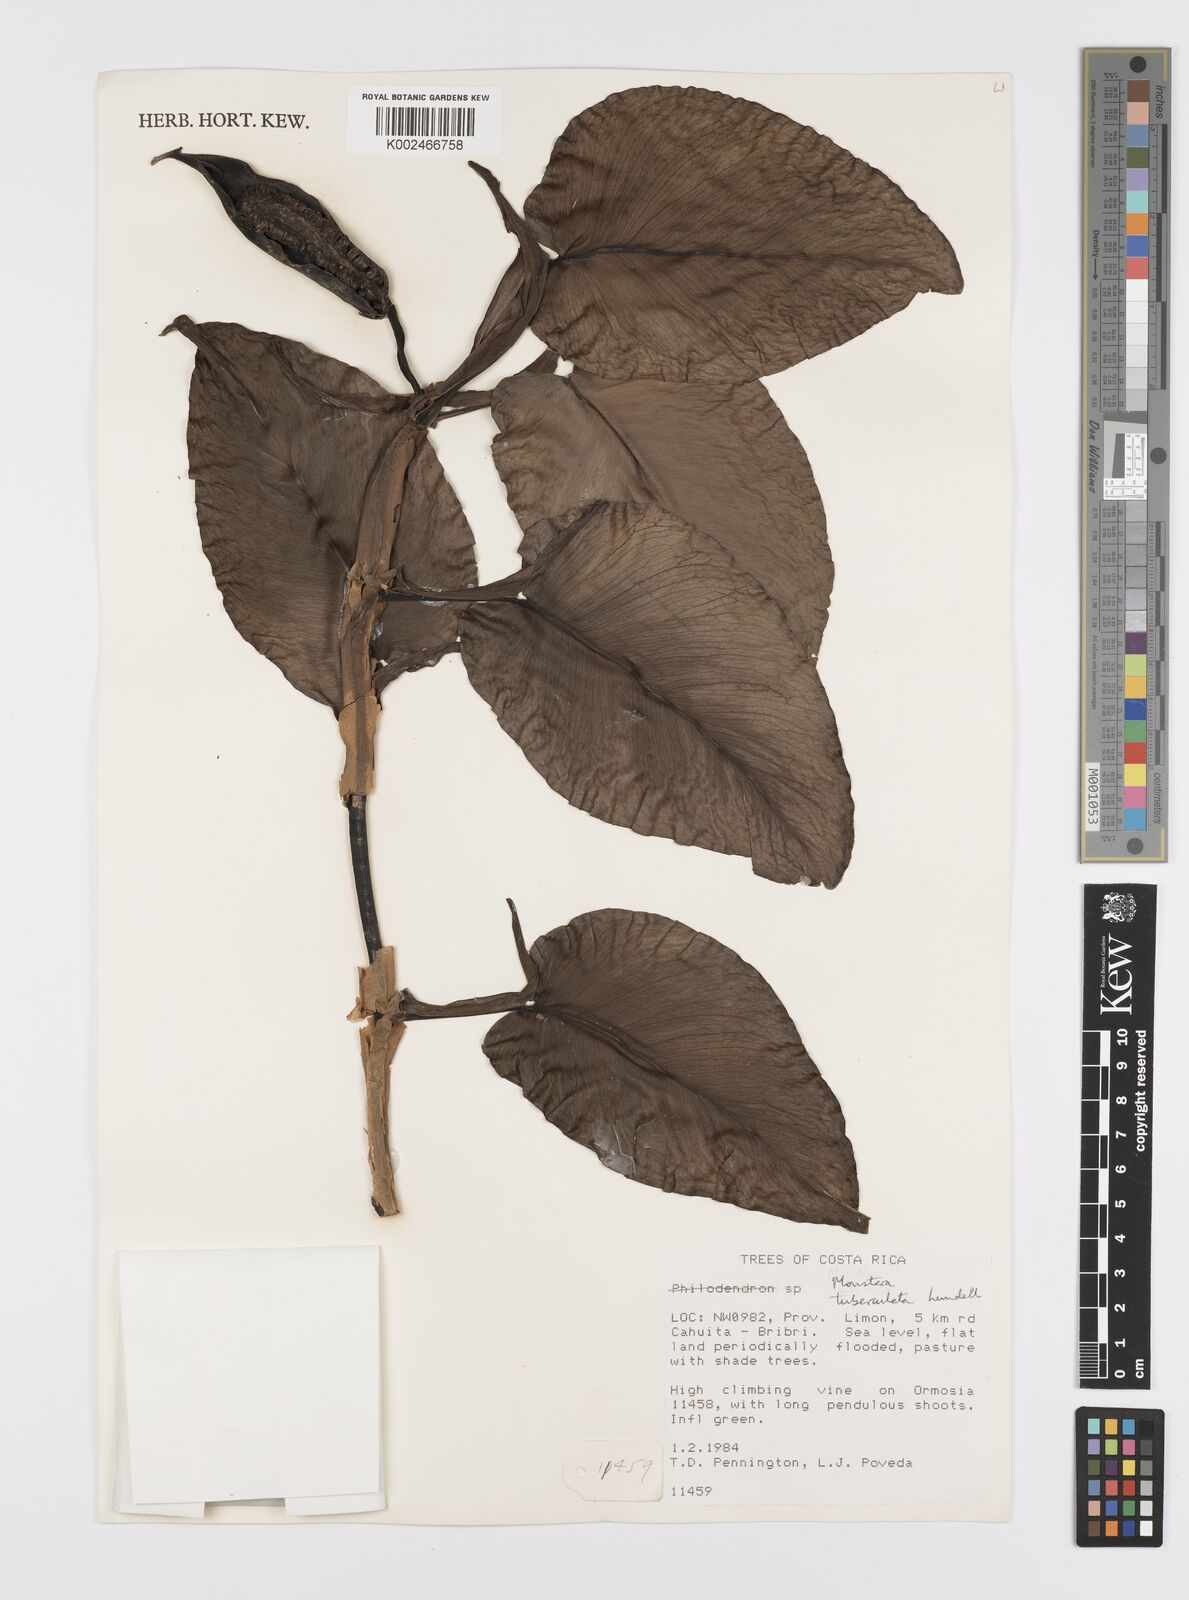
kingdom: Plantae
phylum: Tracheophyta
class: Liliopsida
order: Alismatales
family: Araceae
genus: Monstera
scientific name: Monstera tuberculata
